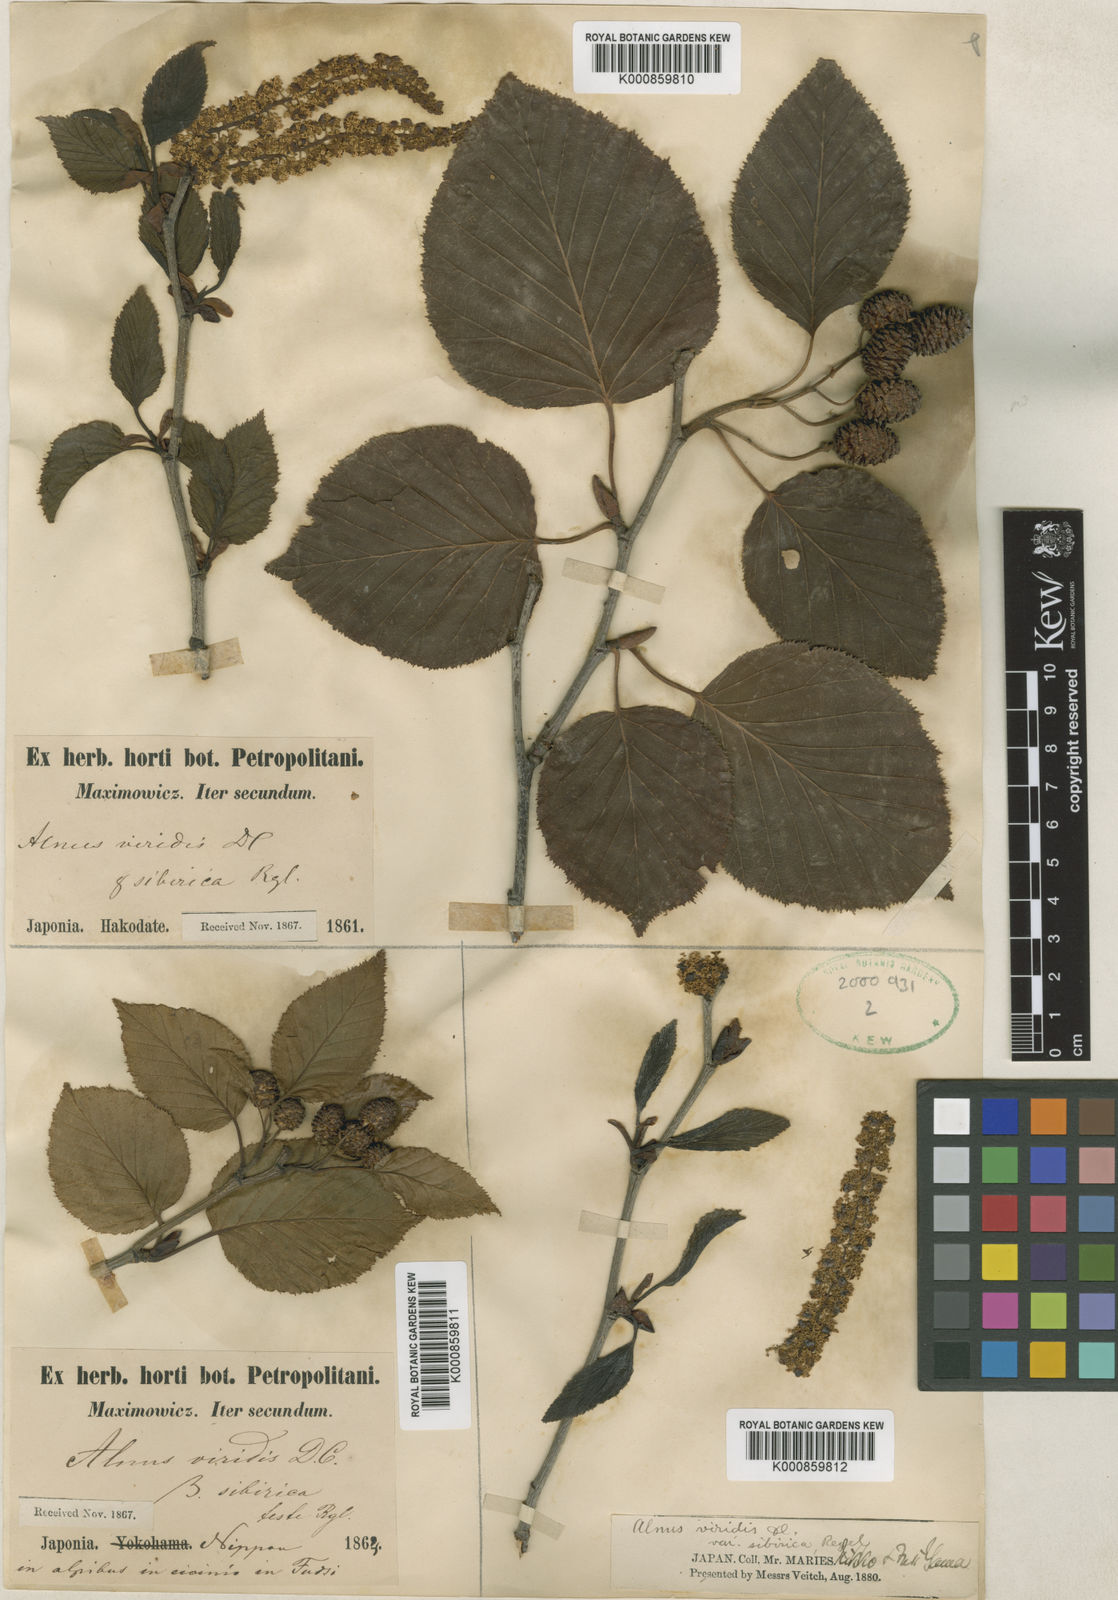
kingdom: Plantae
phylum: Tracheophyta
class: Magnoliopsida
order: Fagales
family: Betulaceae
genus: Alnus
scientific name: Alnus alnobetula
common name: Green alder
